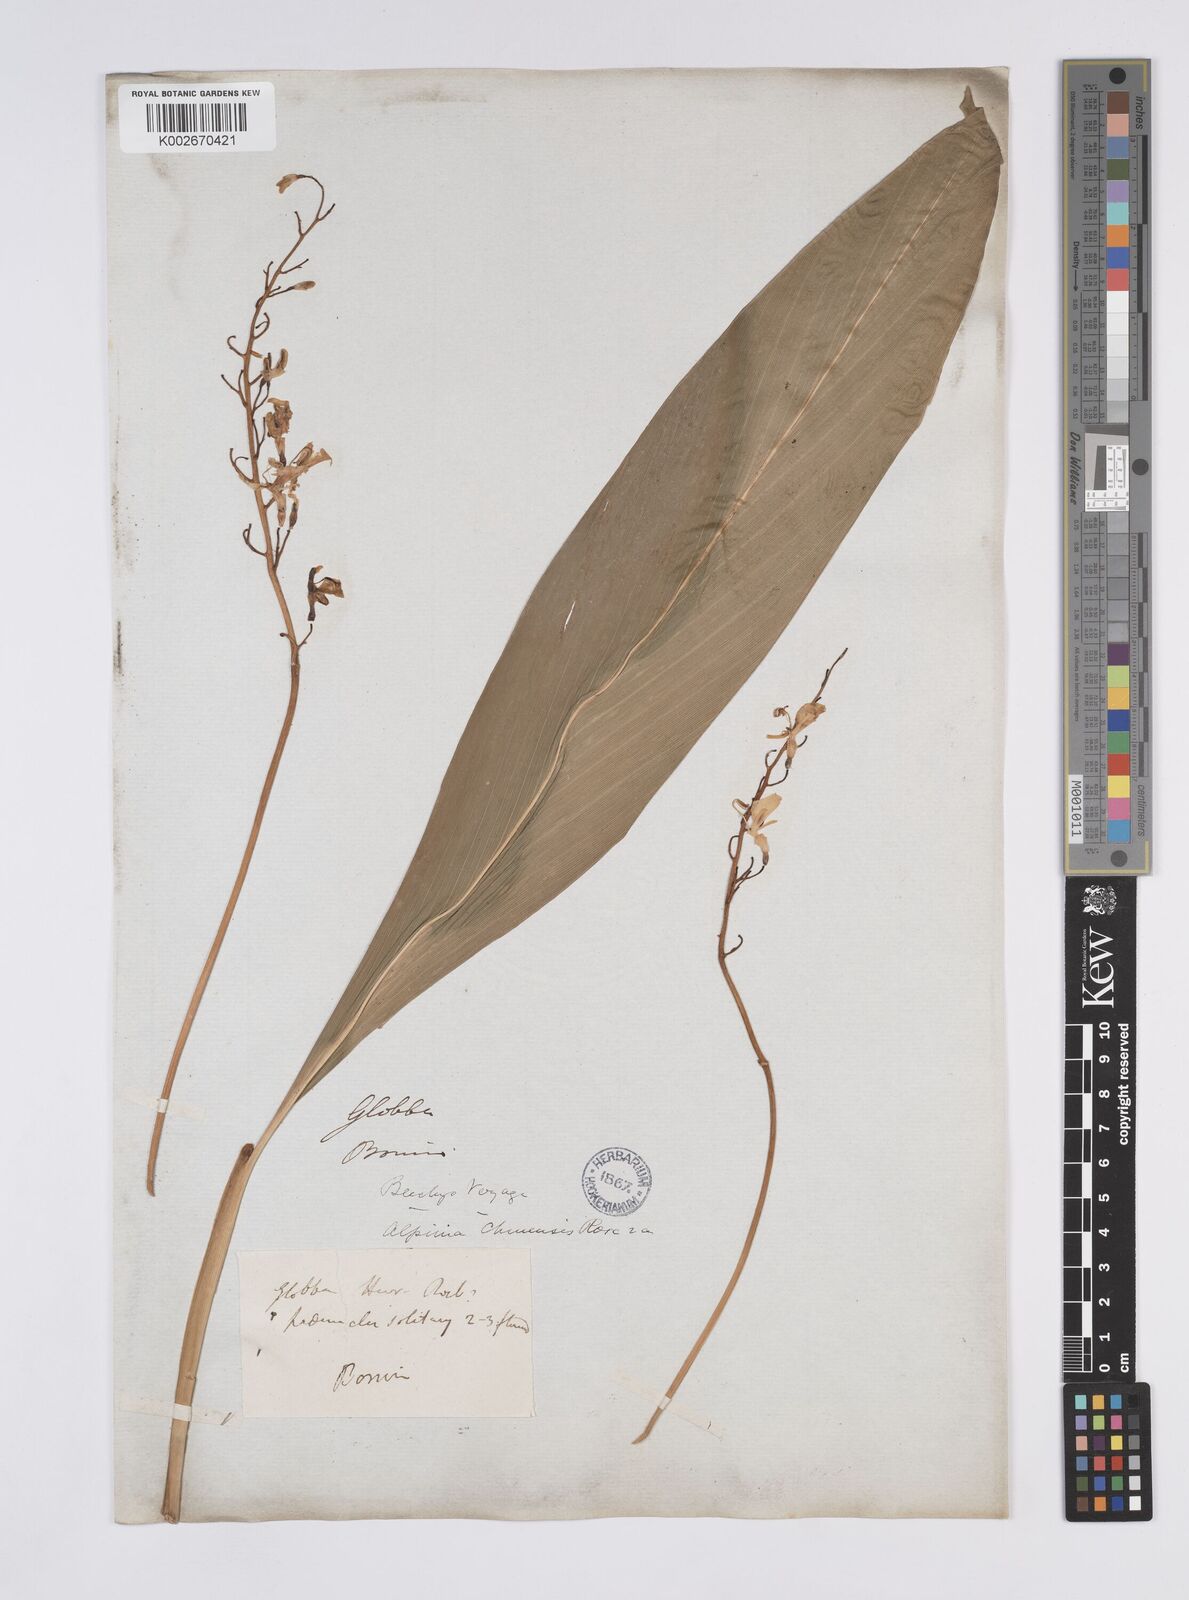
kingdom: Plantae
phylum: Tracheophyta
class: Liliopsida
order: Zingiberales
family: Zingiberaceae
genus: Alpinia
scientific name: Alpinia boninsimensis
